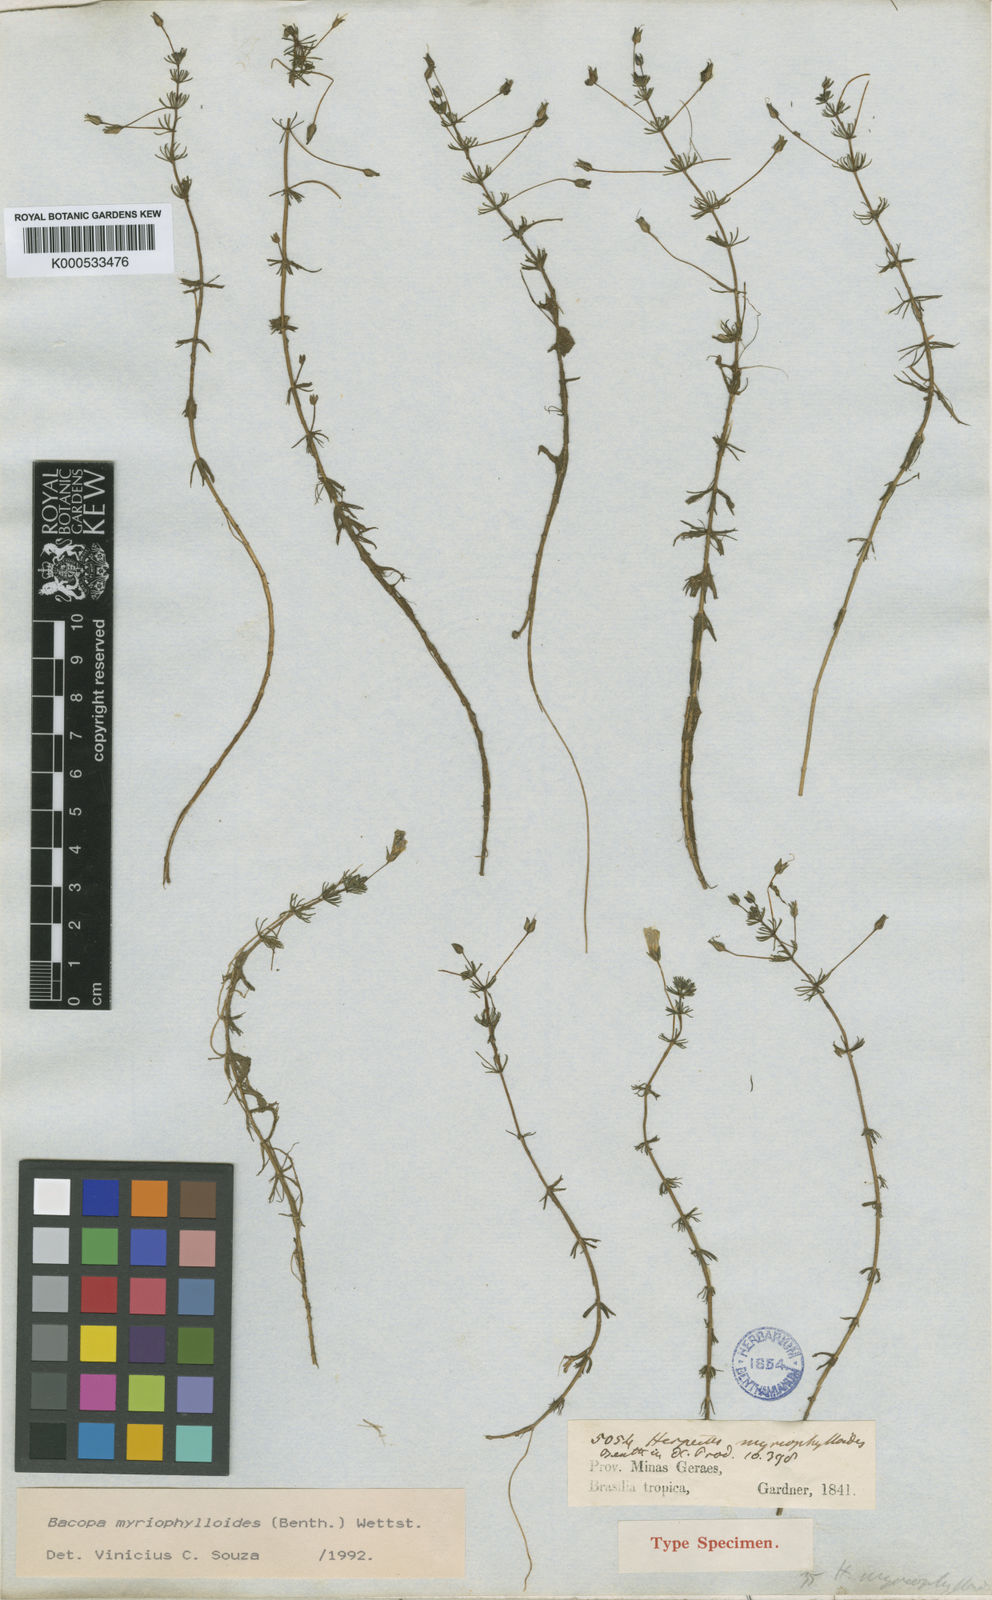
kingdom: Plantae
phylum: Tracheophyta
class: Magnoliopsida
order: Lamiales
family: Plantaginaceae
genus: Bacopa
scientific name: Bacopa myriophylloides
